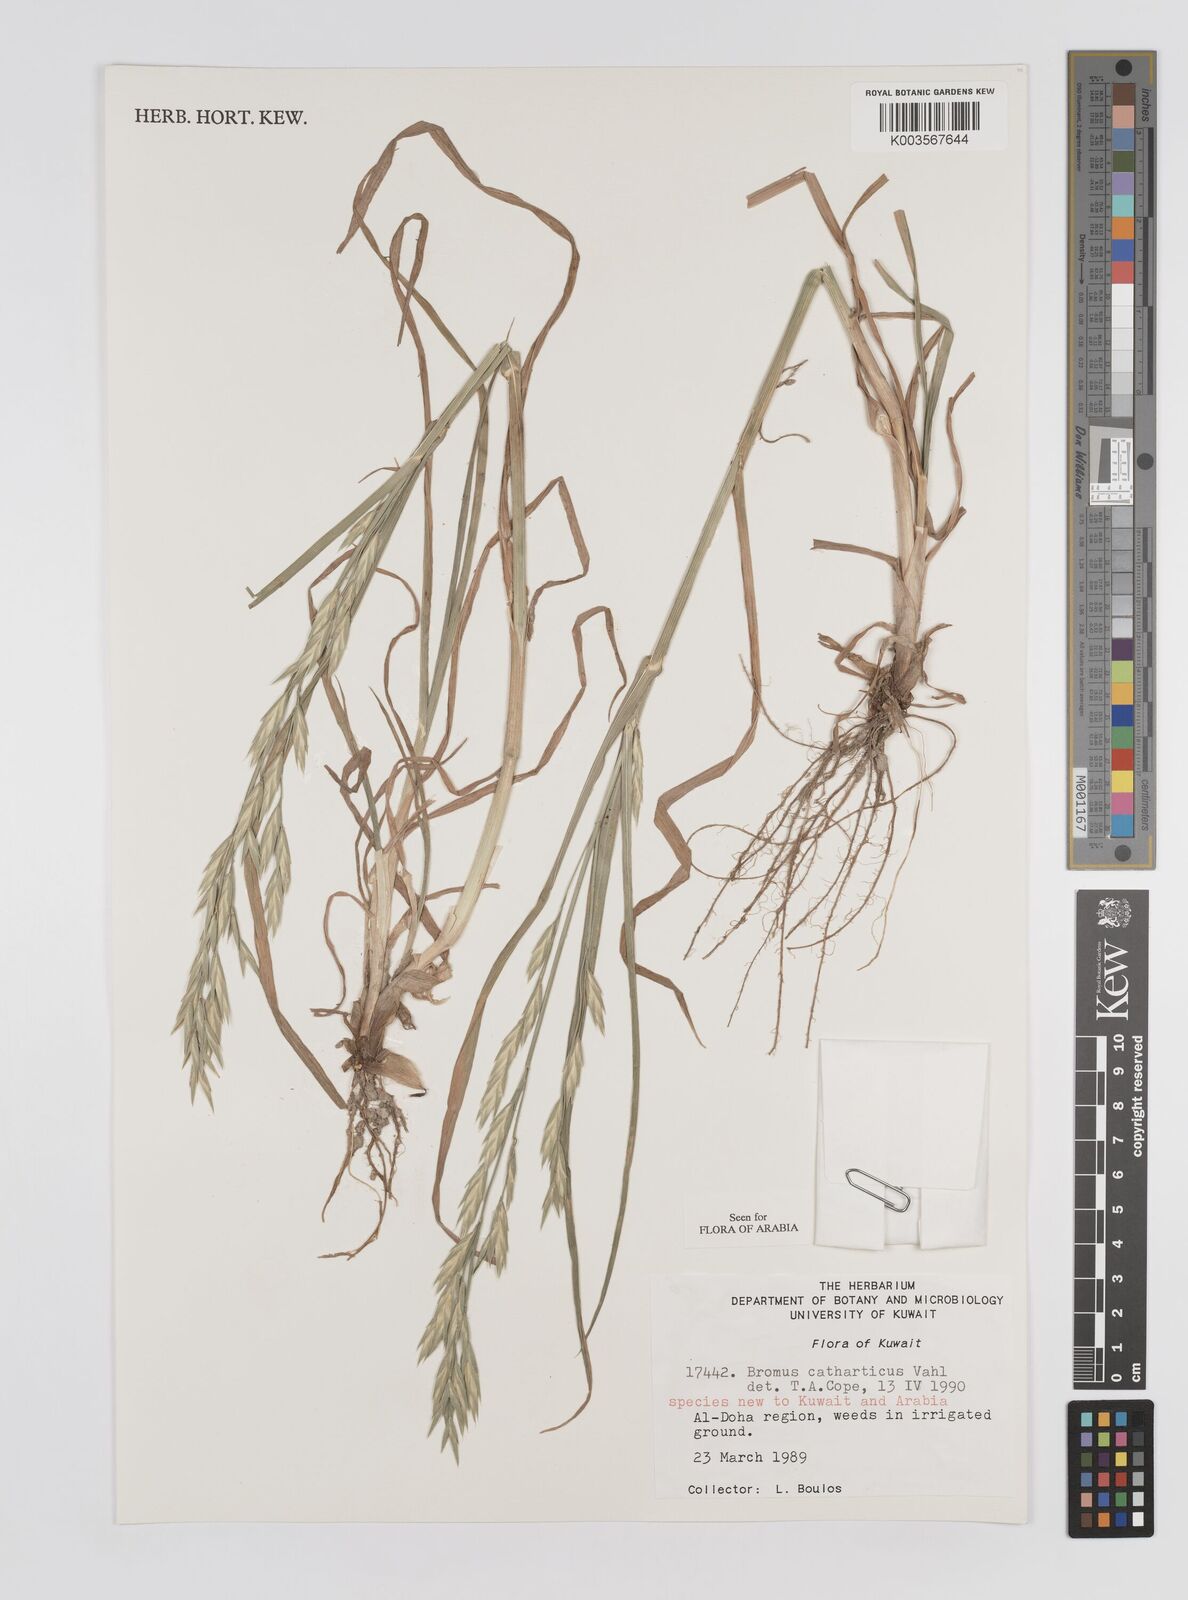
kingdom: Plantae
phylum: Tracheophyta
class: Liliopsida
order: Poales
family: Poaceae
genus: Bromus
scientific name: Bromus catharticus
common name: Rescuegrass
